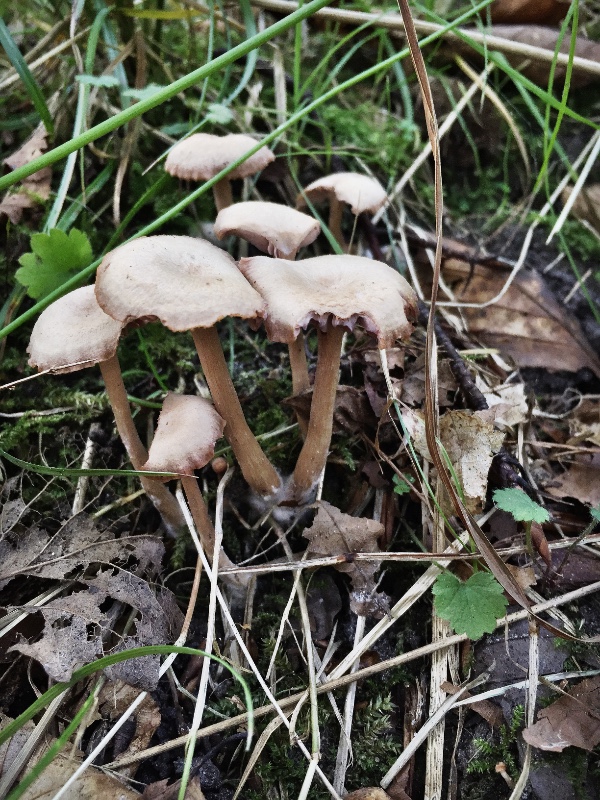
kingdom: Fungi
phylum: Basidiomycota
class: Agaricomycetes
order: Agaricales
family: Hydnangiaceae
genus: Laccaria
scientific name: Laccaria laccata
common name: rød ametysthat
